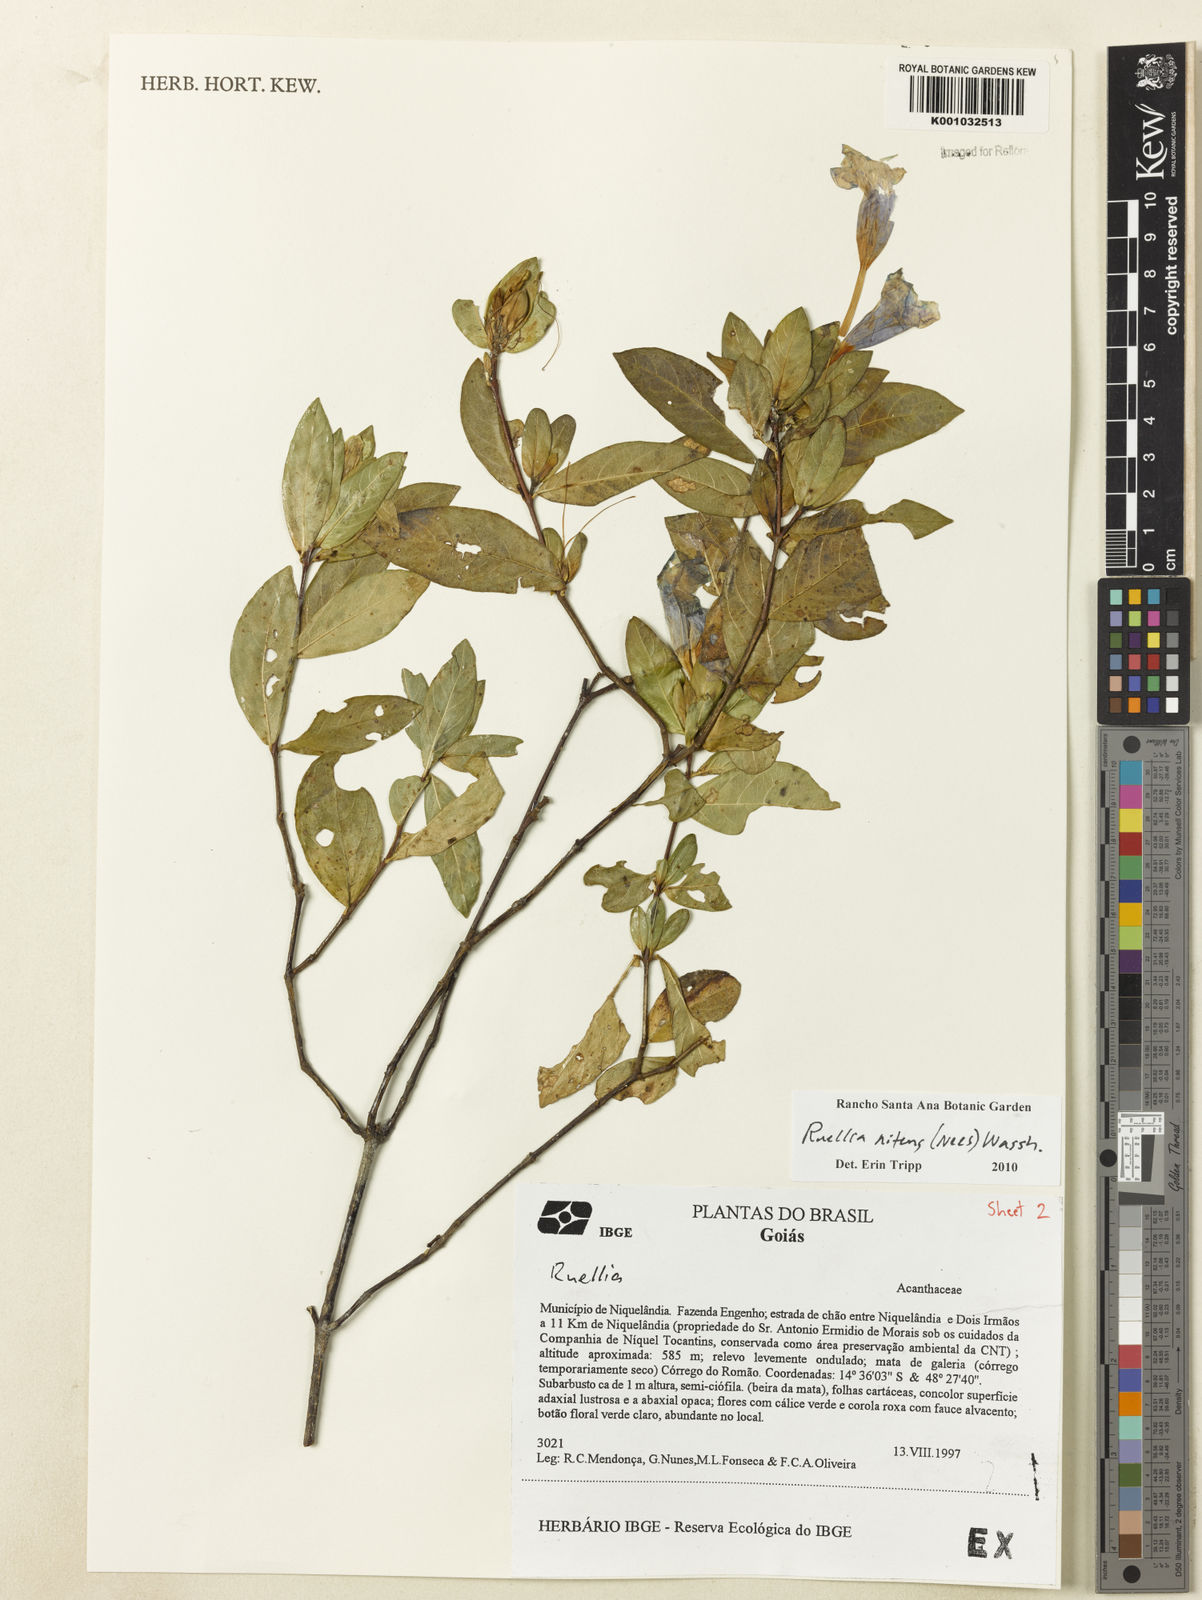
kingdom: Plantae
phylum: Tracheophyta
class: Magnoliopsida
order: Lamiales
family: Acanthaceae
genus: Ruellia
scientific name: Ruellia nitens
